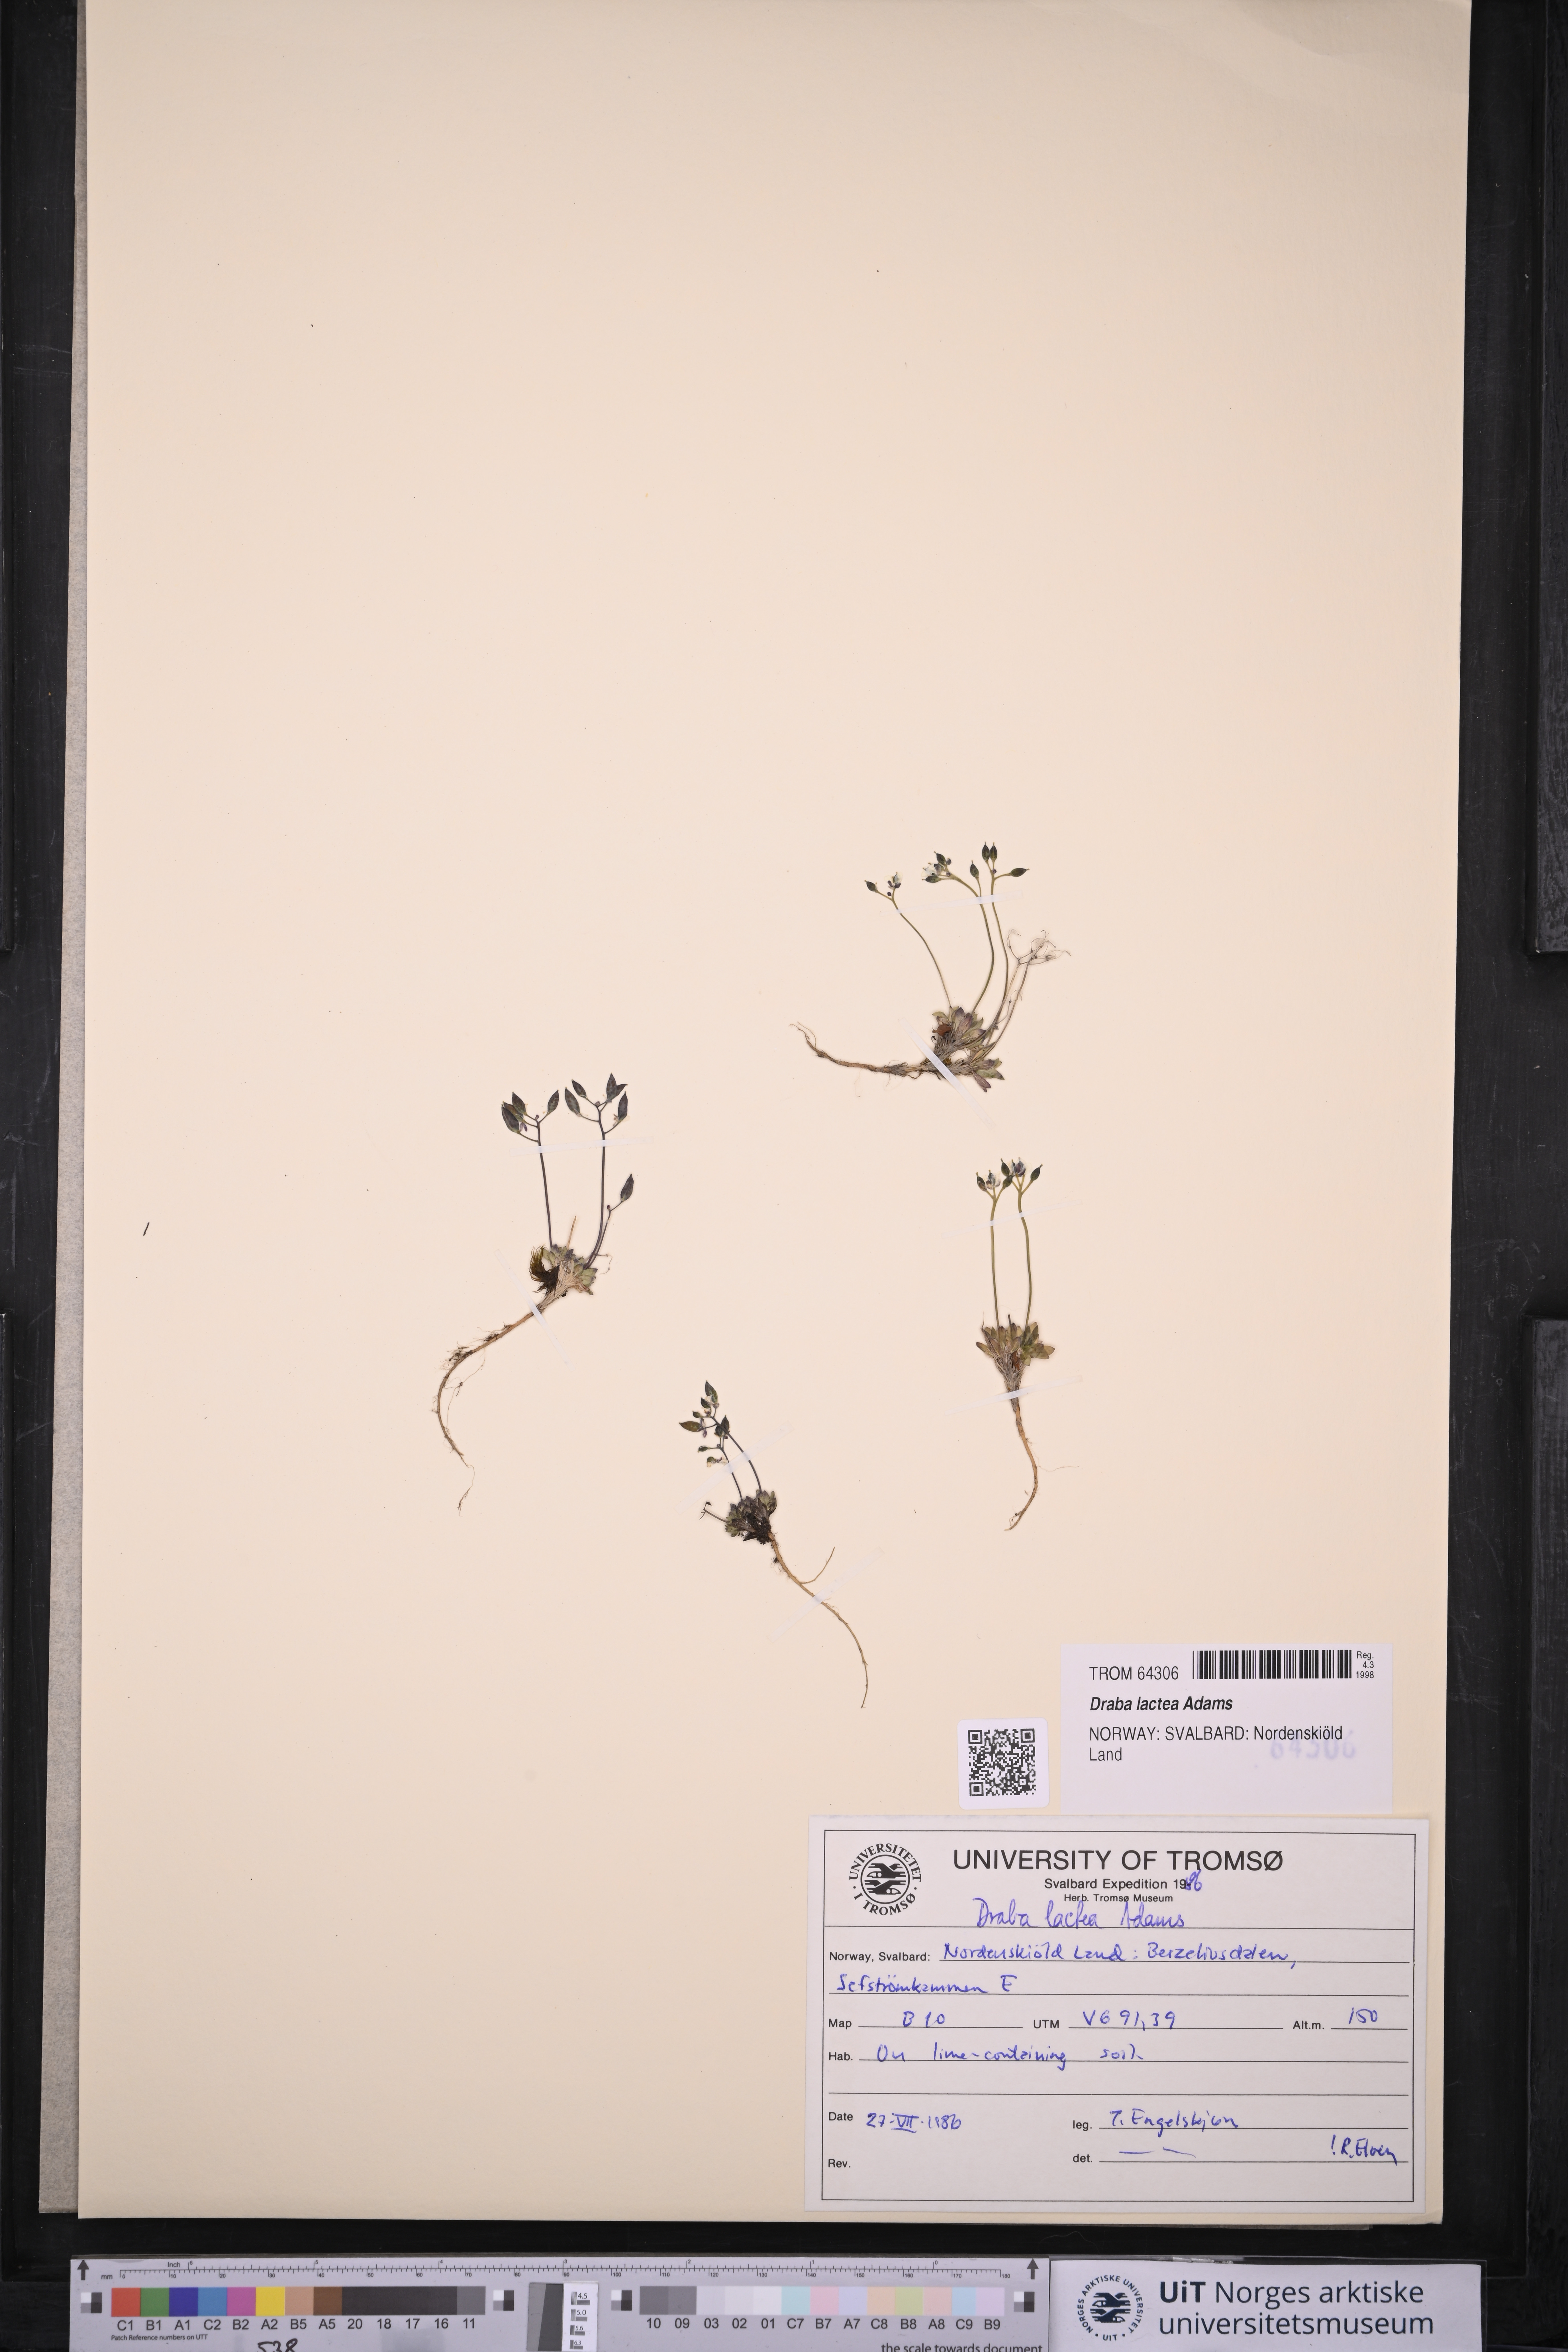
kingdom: Plantae
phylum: Tracheophyta
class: Magnoliopsida
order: Brassicales
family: Brassicaceae
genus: Draba
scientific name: Draba lactea
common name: Milky draba
